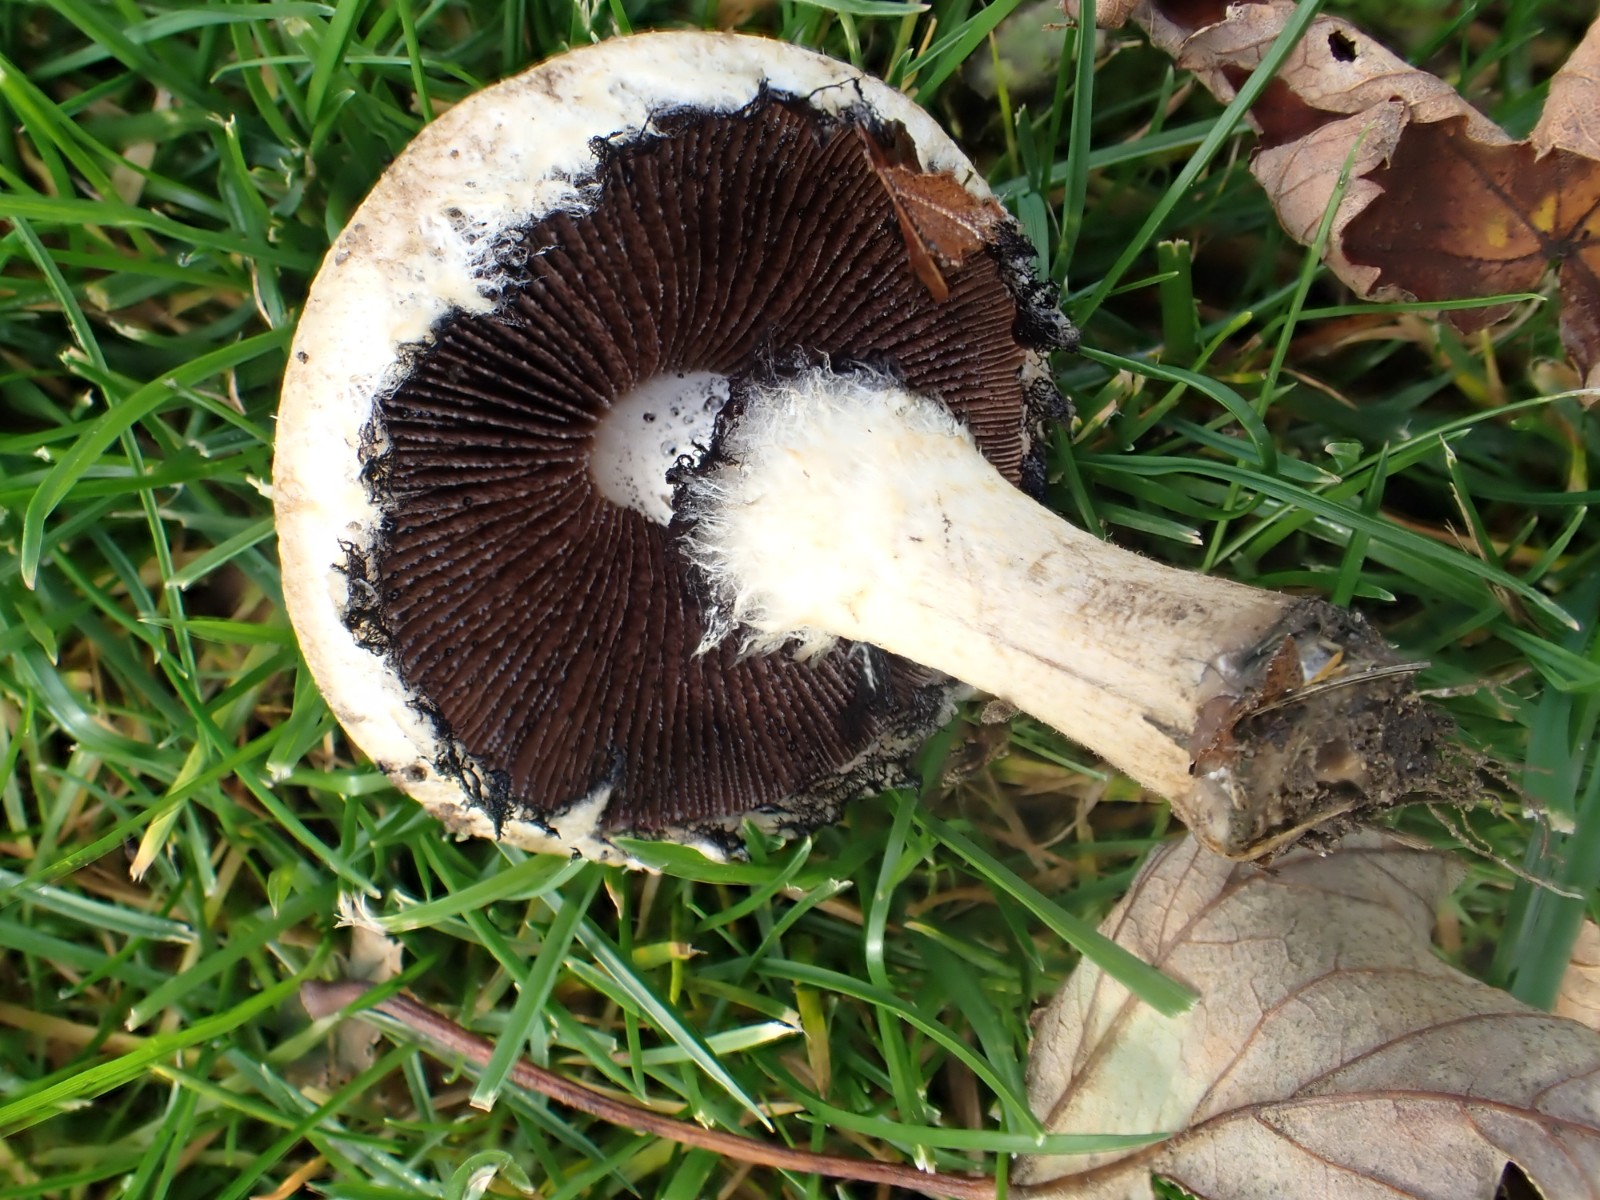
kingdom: Fungi
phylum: Basidiomycota
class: Agaricomycetes
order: Agaricales
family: Psathyrellaceae
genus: Lacrymaria
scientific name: Lacrymaria lacrymabunda
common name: grædende mørkhat
